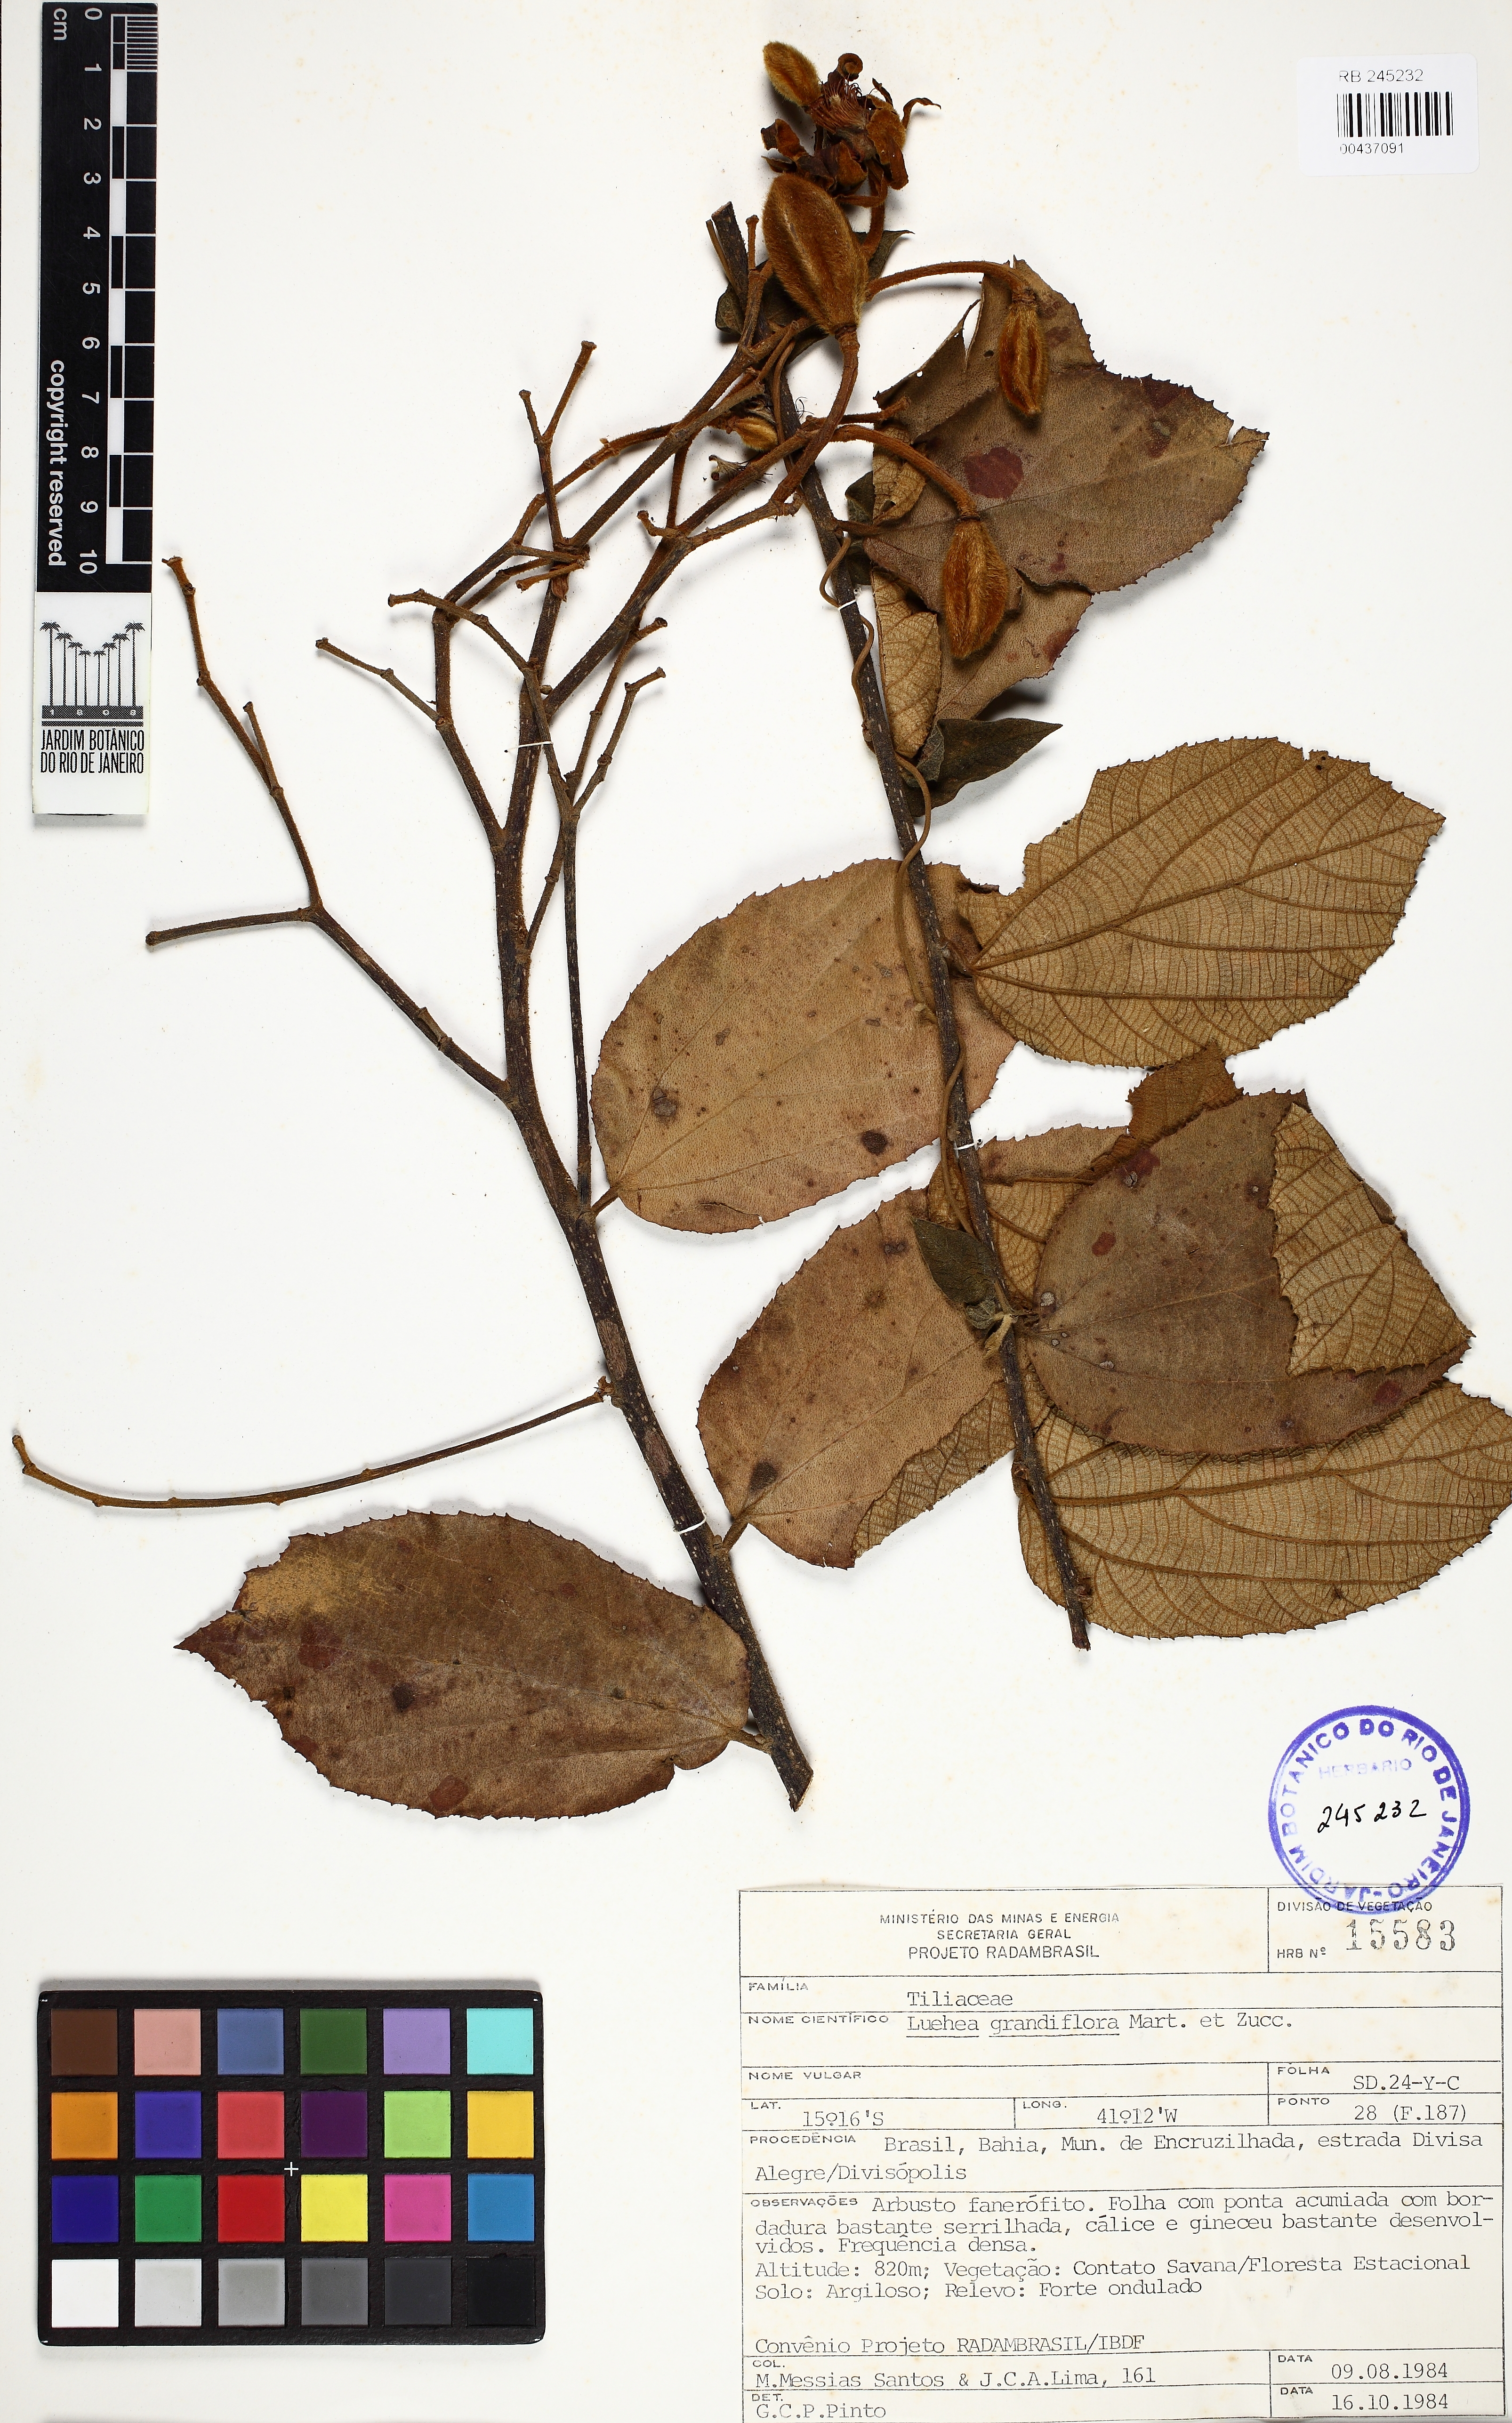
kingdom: Plantae
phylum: Tracheophyta
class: Magnoliopsida
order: Malvales
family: Malvaceae
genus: Luehea
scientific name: Luehea rufescens
